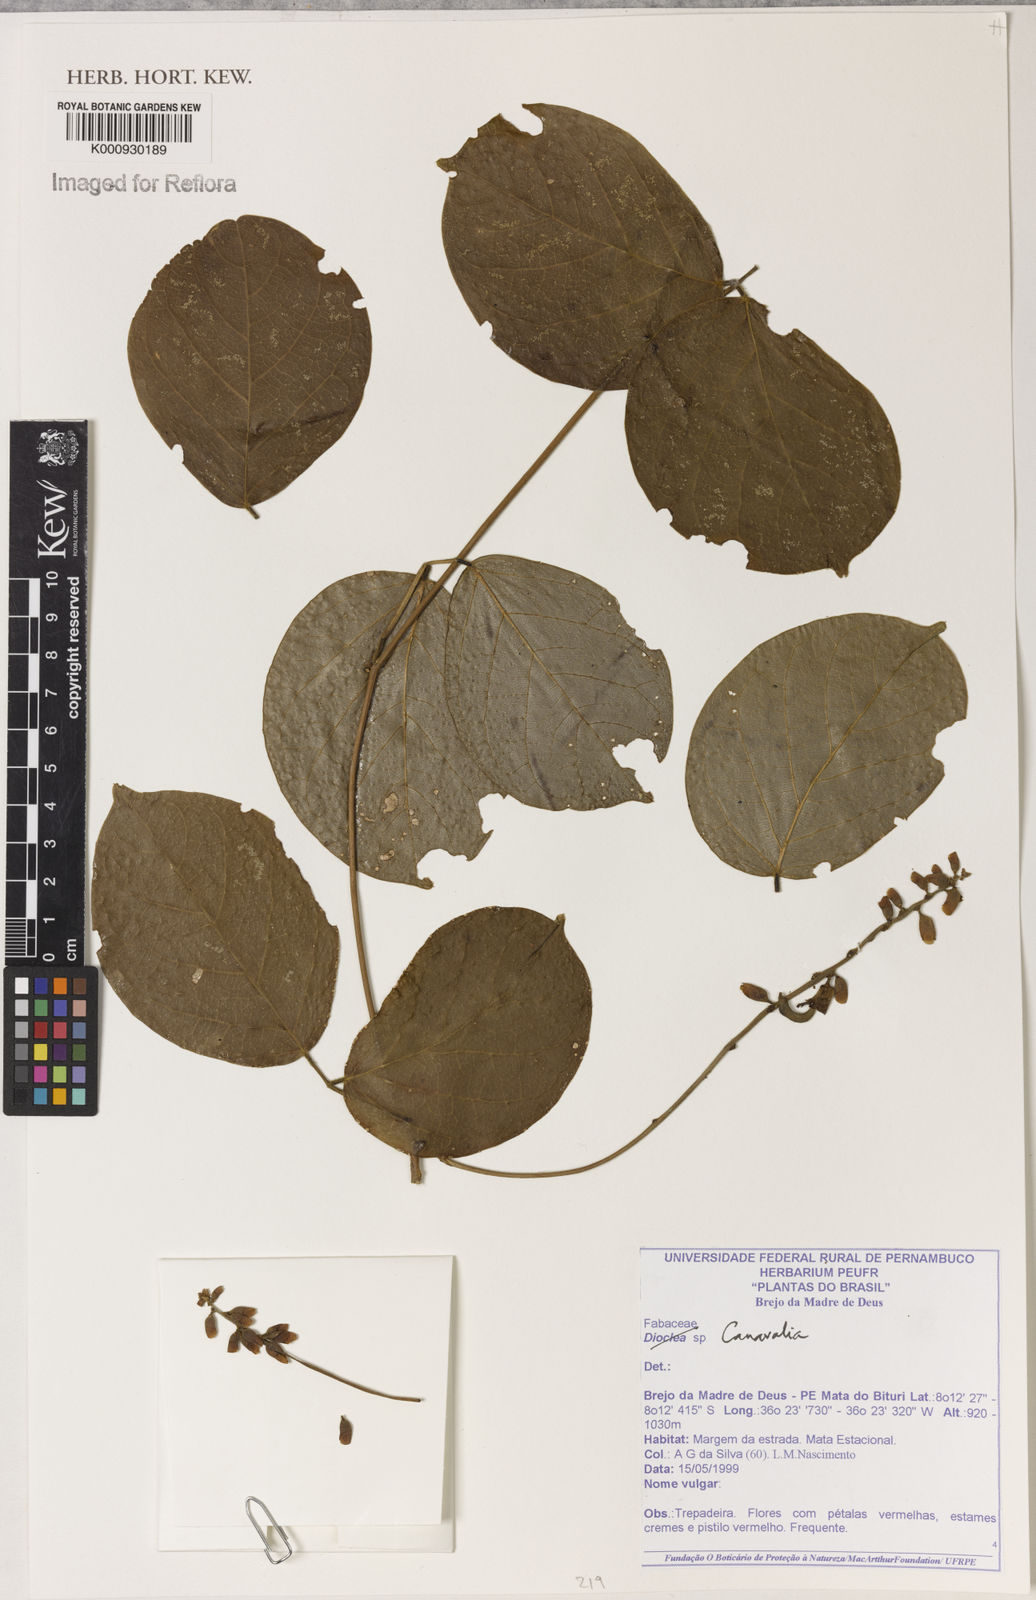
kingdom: Plantae
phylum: Tracheophyta
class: Magnoliopsida
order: Fabales
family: Fabaceae
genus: Canavalia
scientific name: Canavalia
